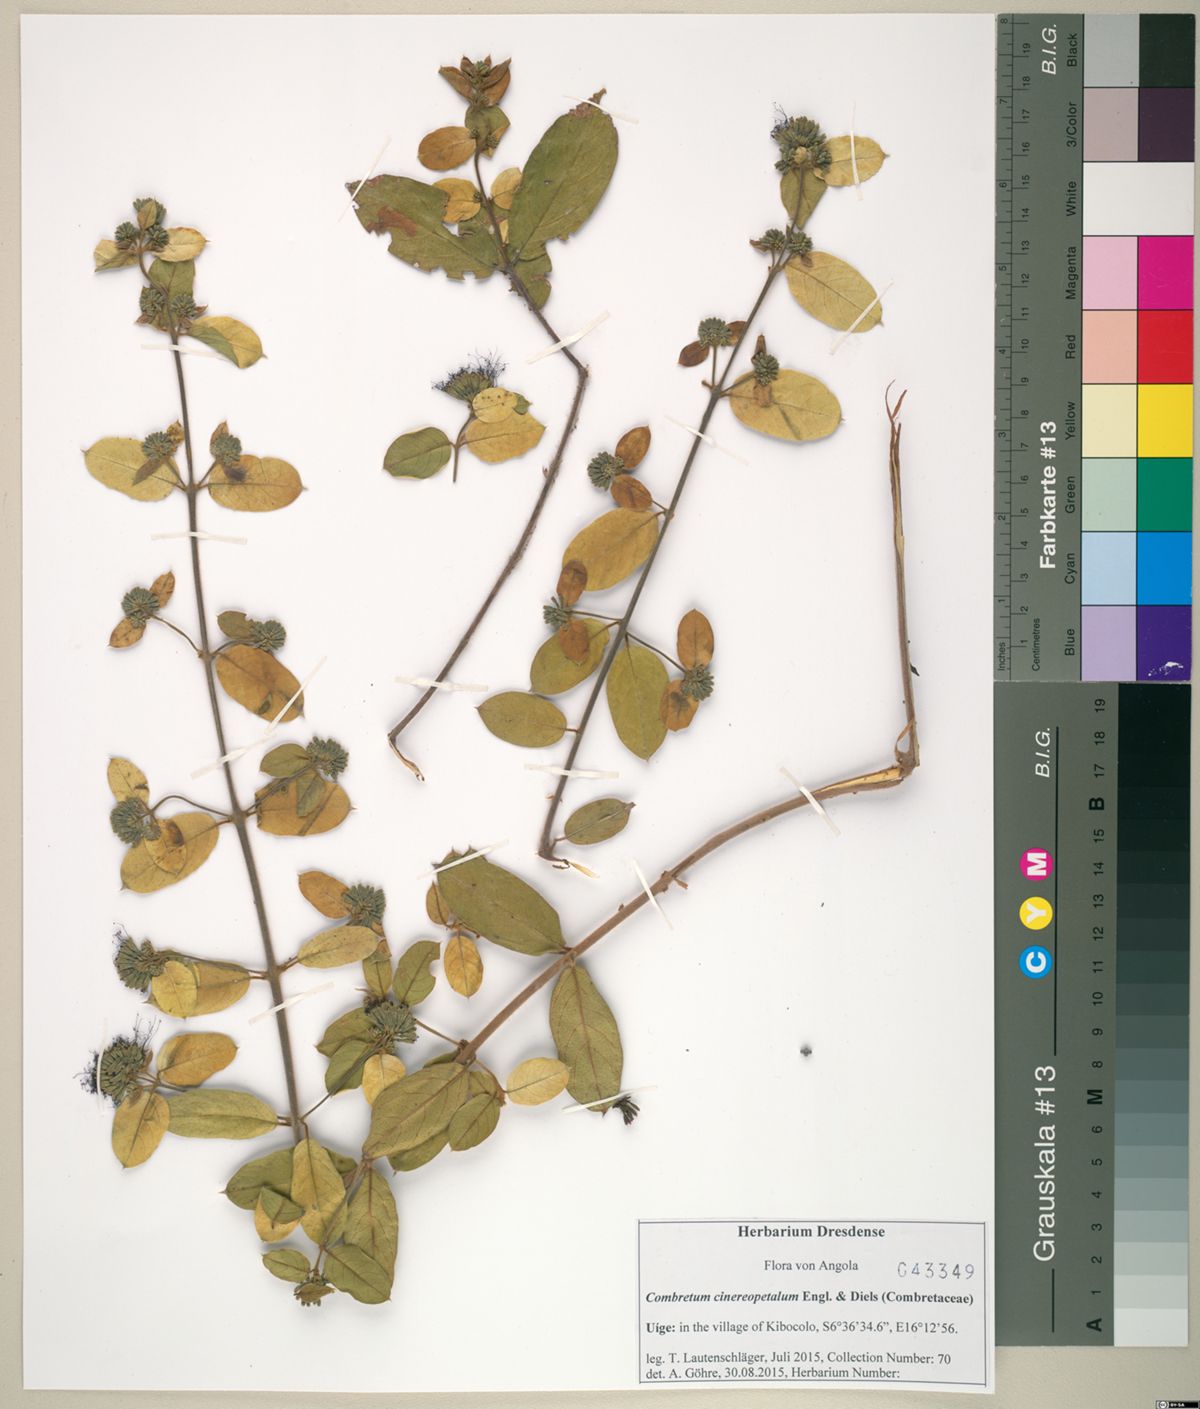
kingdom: Plantae
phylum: Tracheophyta
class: Magnoliopsida
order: Myrtales
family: Combretaceae
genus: Combretum
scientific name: Combretum cinereopetalum
